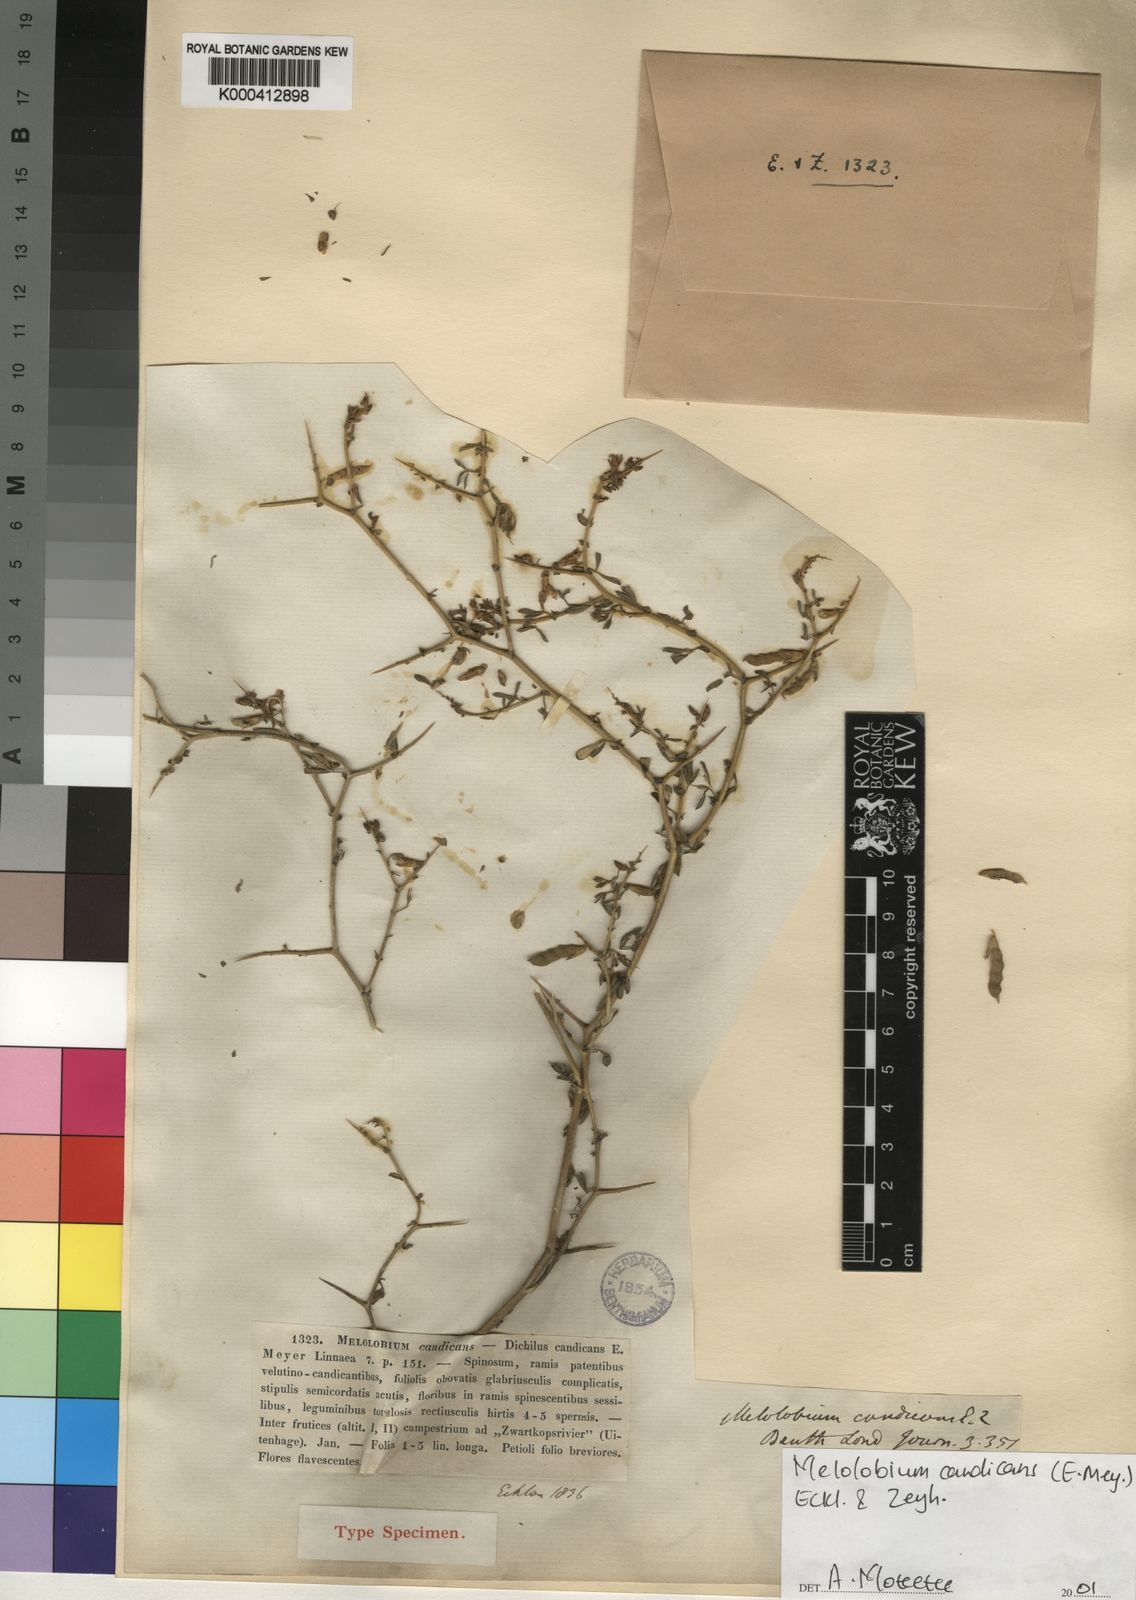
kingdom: Plantae
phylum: Tracheophyta
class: Magnoliopsida
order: Fabales
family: Fabaceae
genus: Melolobium
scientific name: Melolobium candicans
